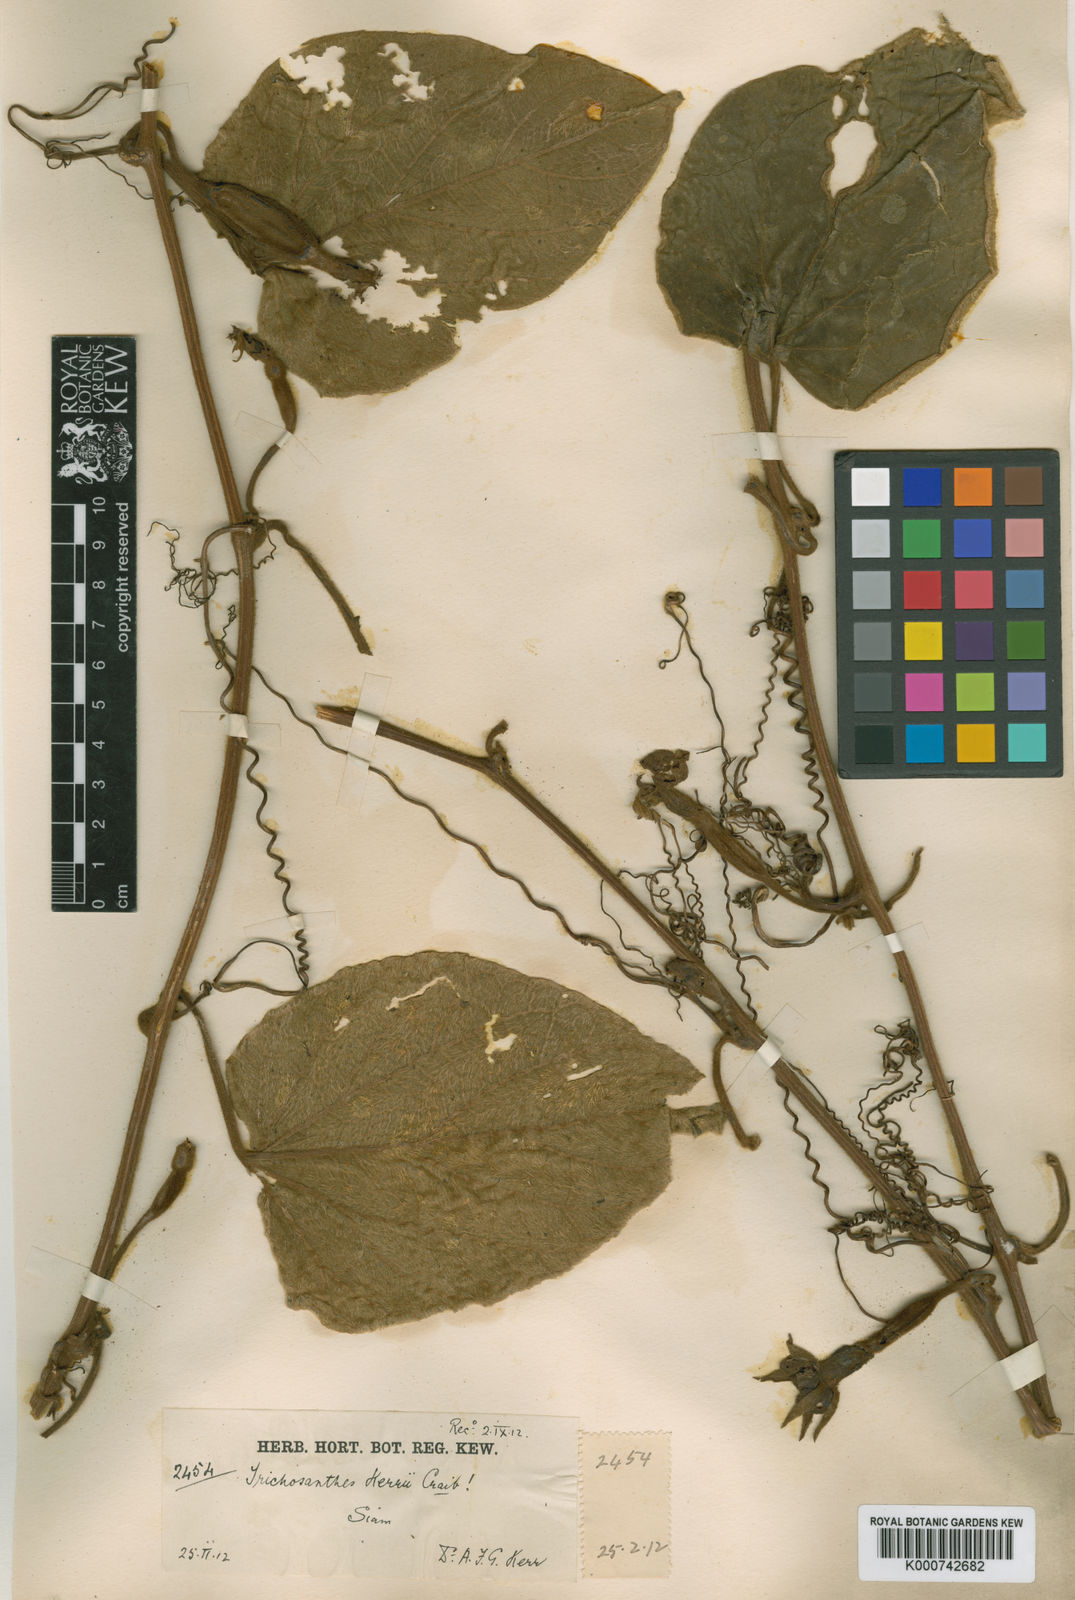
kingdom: Plantae
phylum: Tracheophyta
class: Magnoliopsida
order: Cucurbitales
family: Cucurbitaceae
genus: Trichosanthes
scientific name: Trichosanthes kerrii
